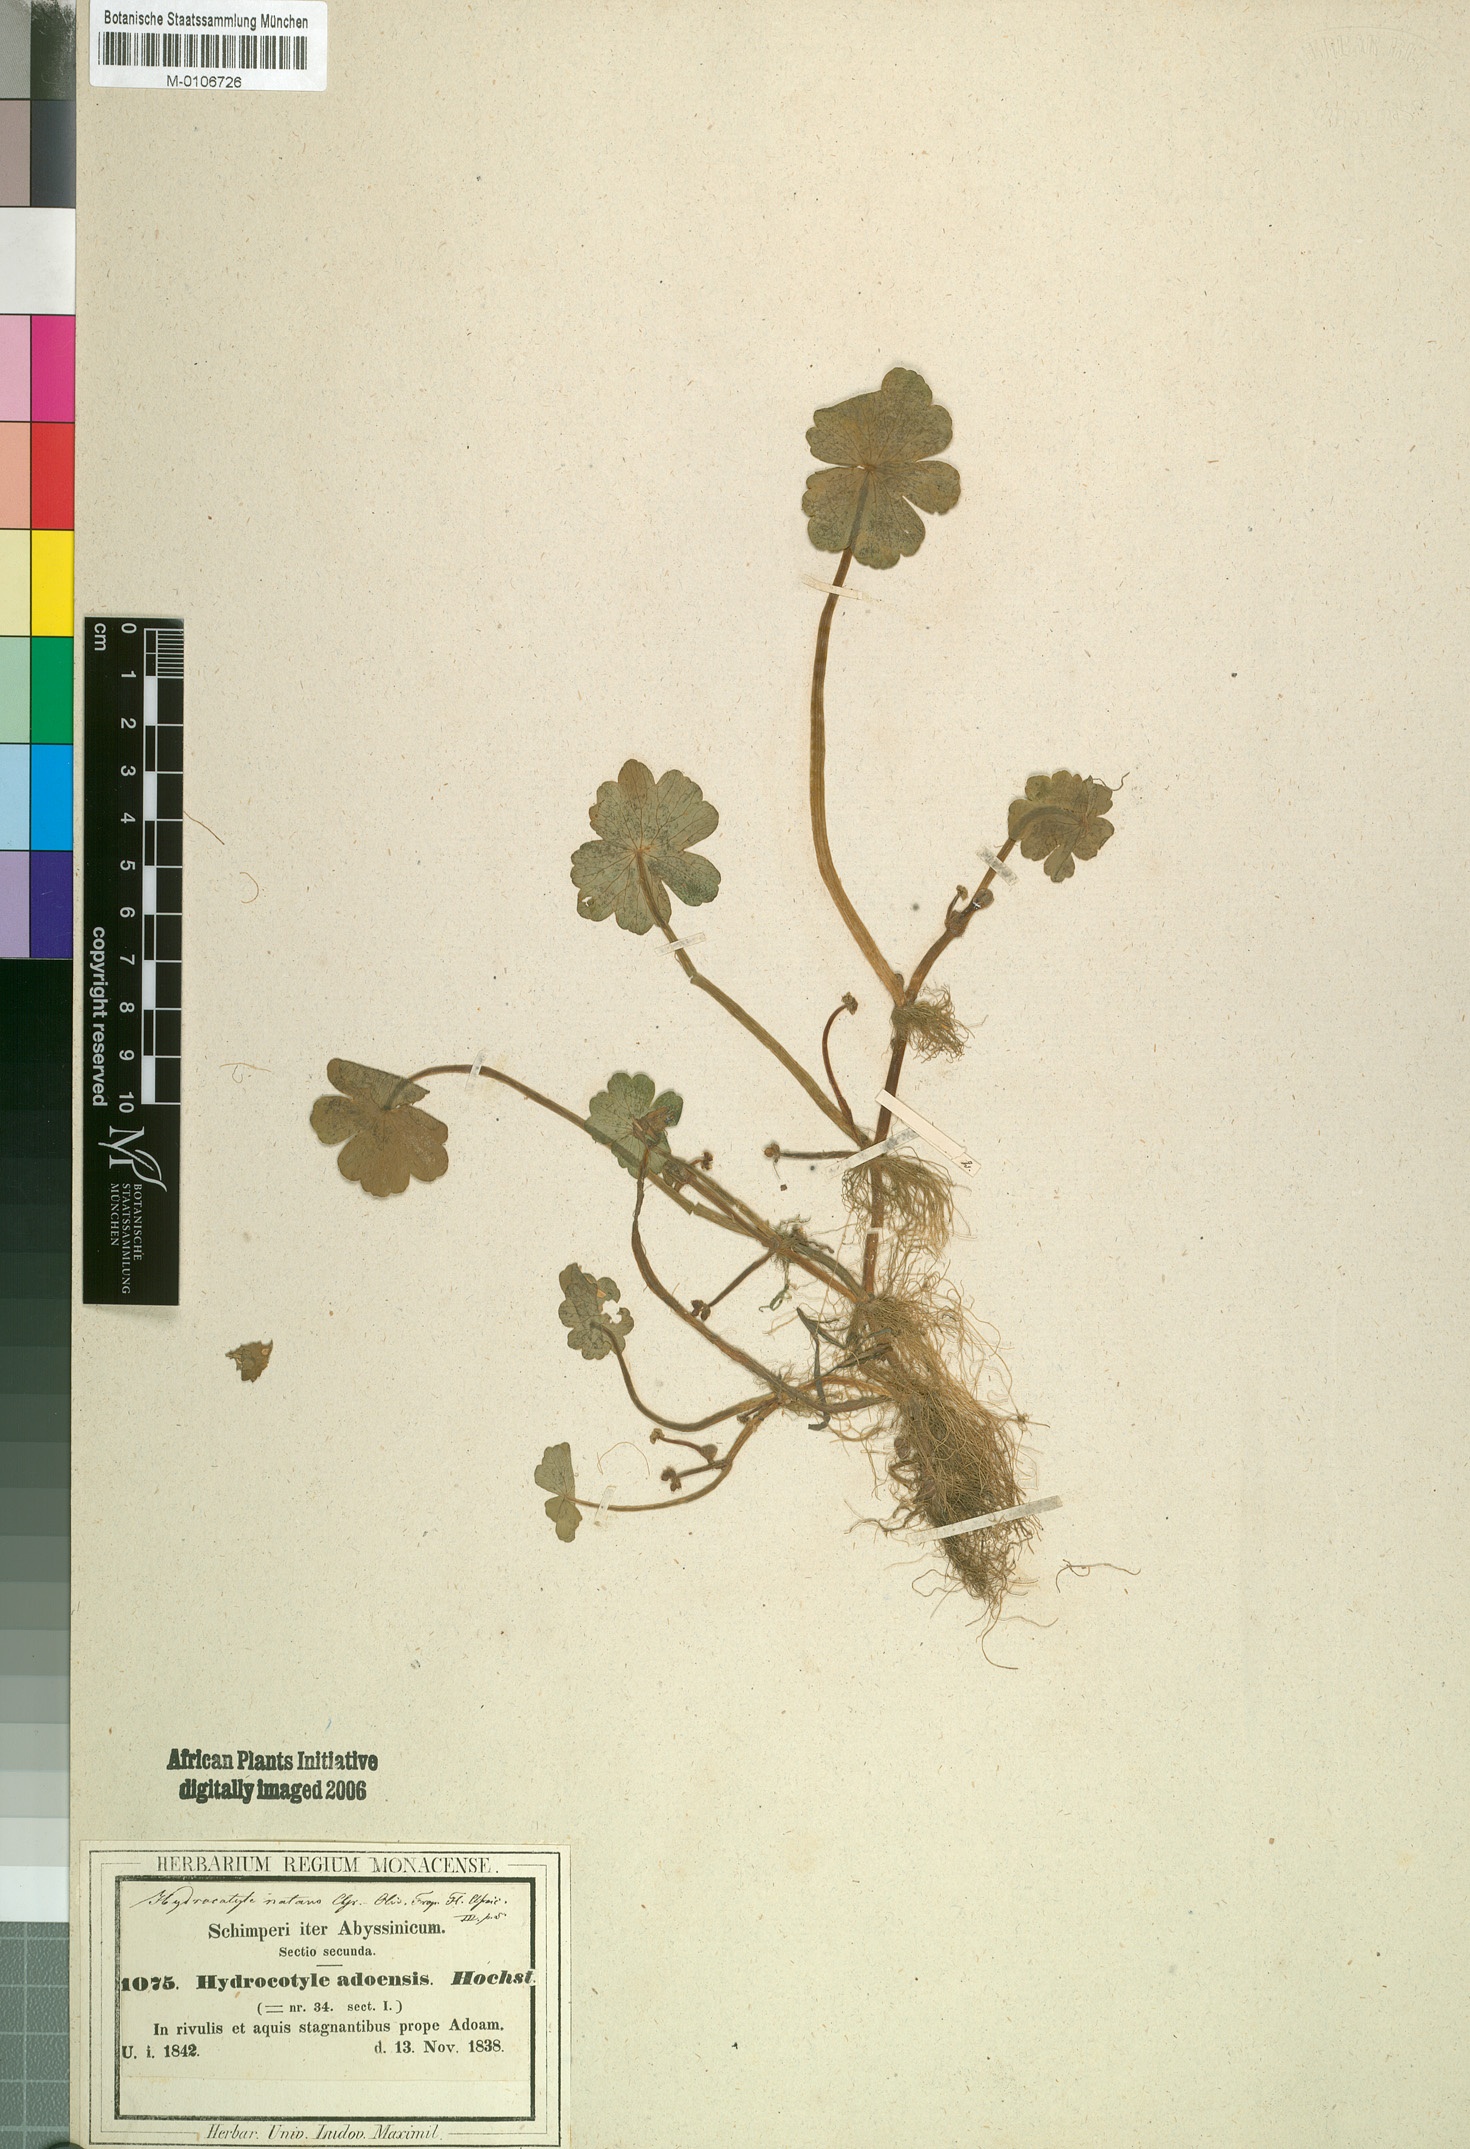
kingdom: Plantae
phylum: Tracheophyta
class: Magnoliopsida
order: Apiales
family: Araliaceae
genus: Hydrocotyle
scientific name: Hydrocotyle ranunculoides
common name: Floating pennywort
